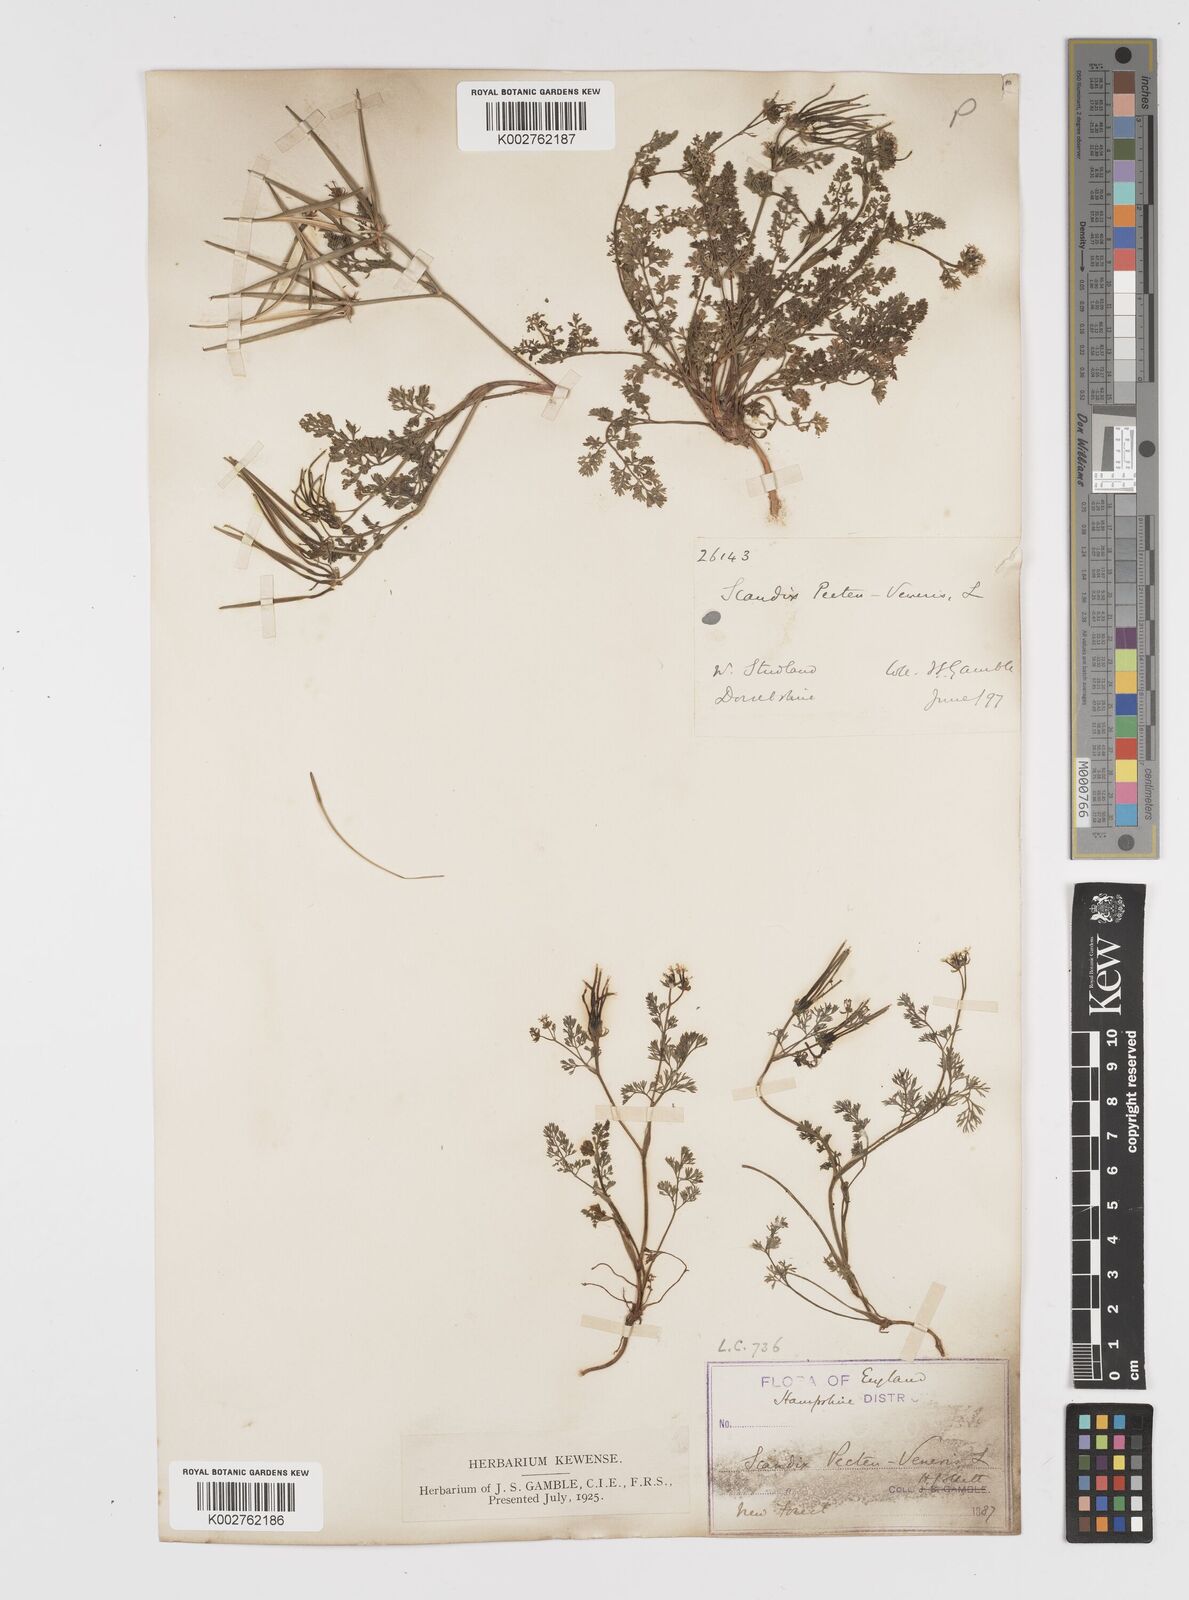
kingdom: Plantae
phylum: Tracheophyta
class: Magnoliopsida
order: Apiales
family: Apiaceae
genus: Scandix
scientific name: Scandix pecten-veneris
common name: Shepherd's-needle
